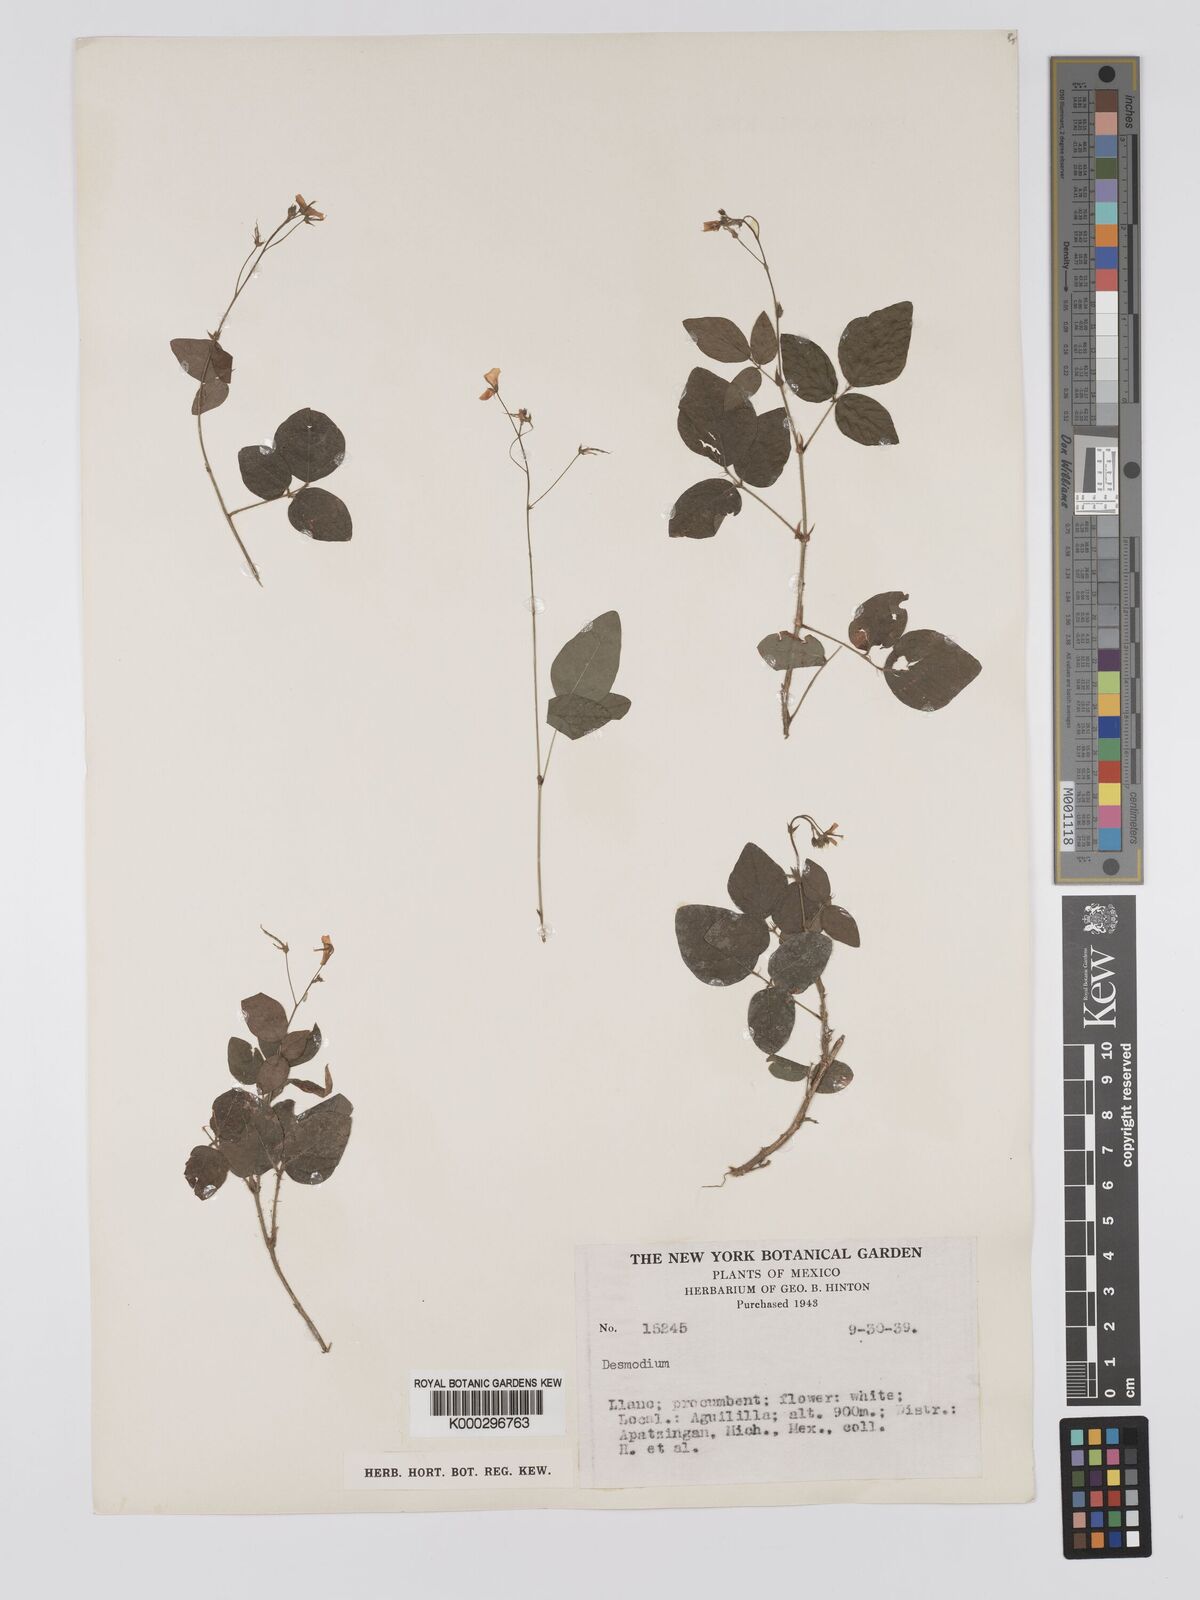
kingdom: Plantae
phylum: Tracheophyta
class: Magnoliopsida
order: Fabales
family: Fabaceae
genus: Desmodium
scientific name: Desmodium
